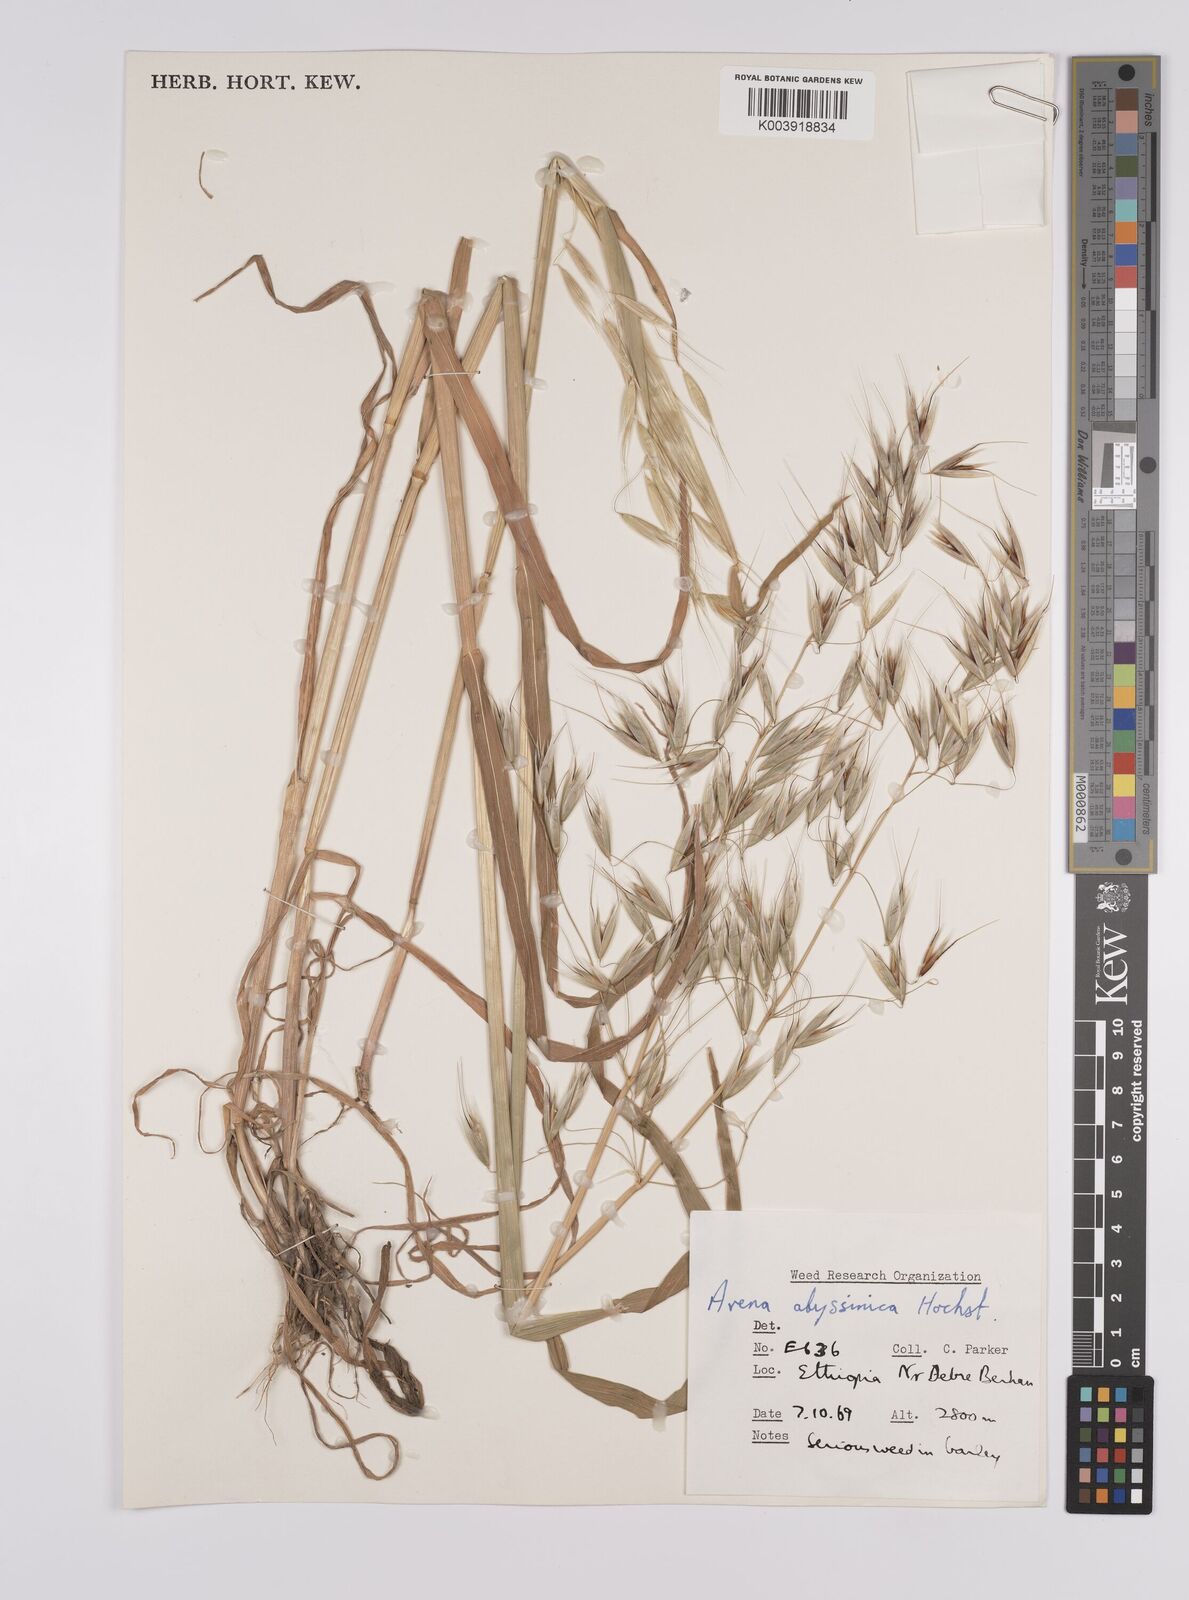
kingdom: Plantae
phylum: Tracheophyta
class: Liliopsida
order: Poales
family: Poaceae
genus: Avena
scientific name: Avena abyssinica
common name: Ethiopian oat
